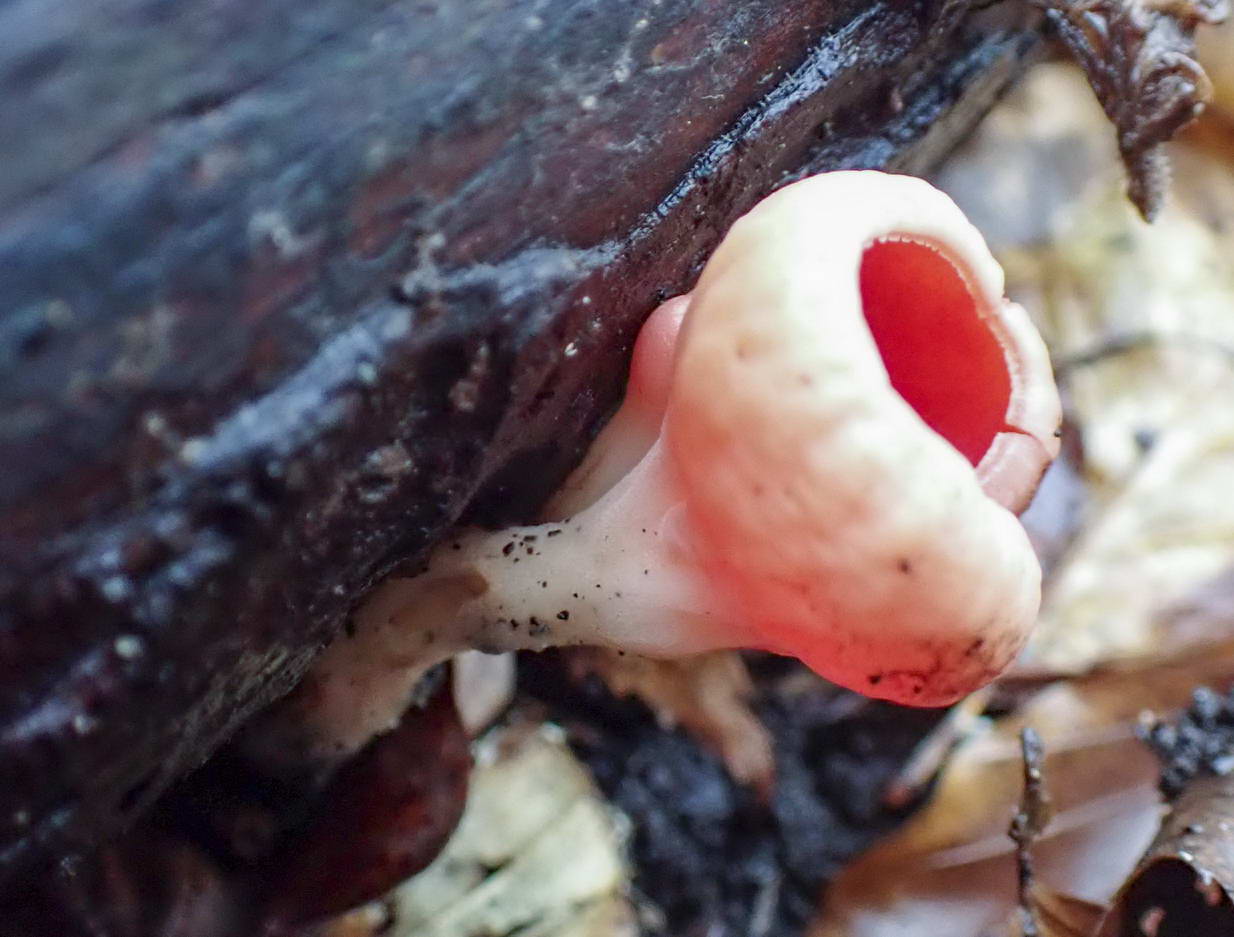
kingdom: Fungi
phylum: Ascomycota
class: Pezizomycetes
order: Pezizales
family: Sarcoscyphaceae
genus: Sarcoscypha
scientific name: Sarcoscypha austriaca
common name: krølhåret pragtbæger
